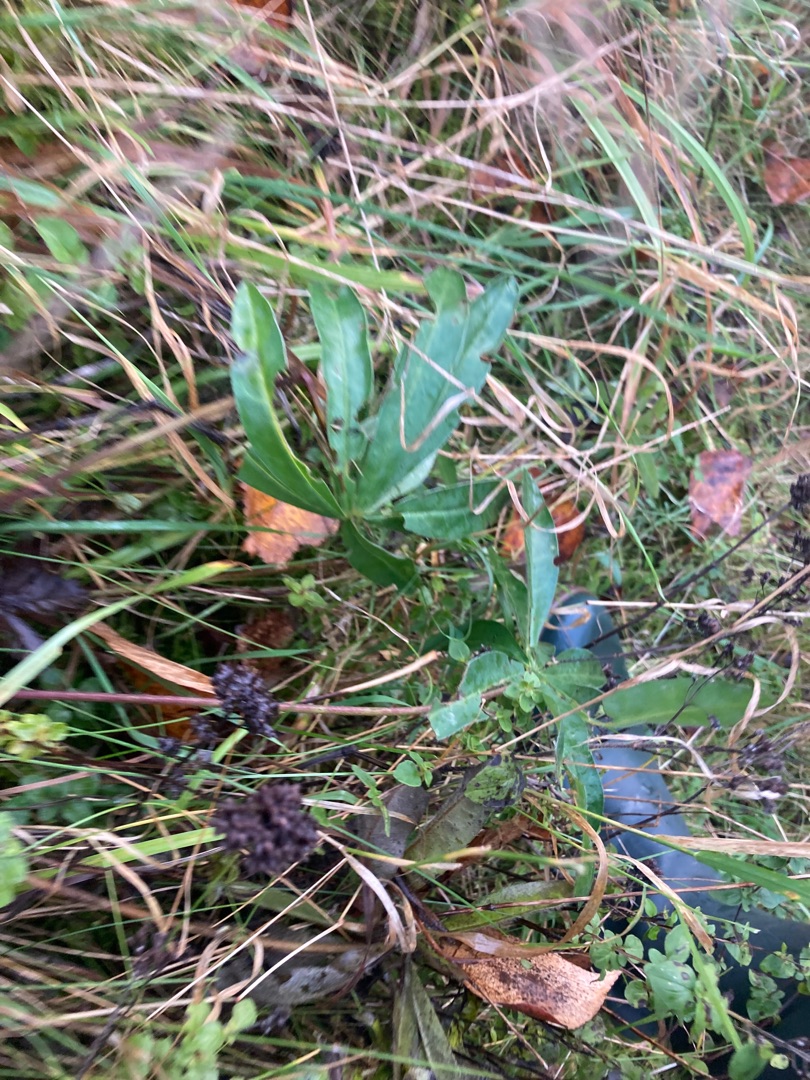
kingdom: Plantae
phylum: Tracheophyta
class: Magnoliopsida
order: Fabales
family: Fabaceae
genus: Lupinus
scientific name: Lupinus polyphyllus
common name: Mangebladet lupin
